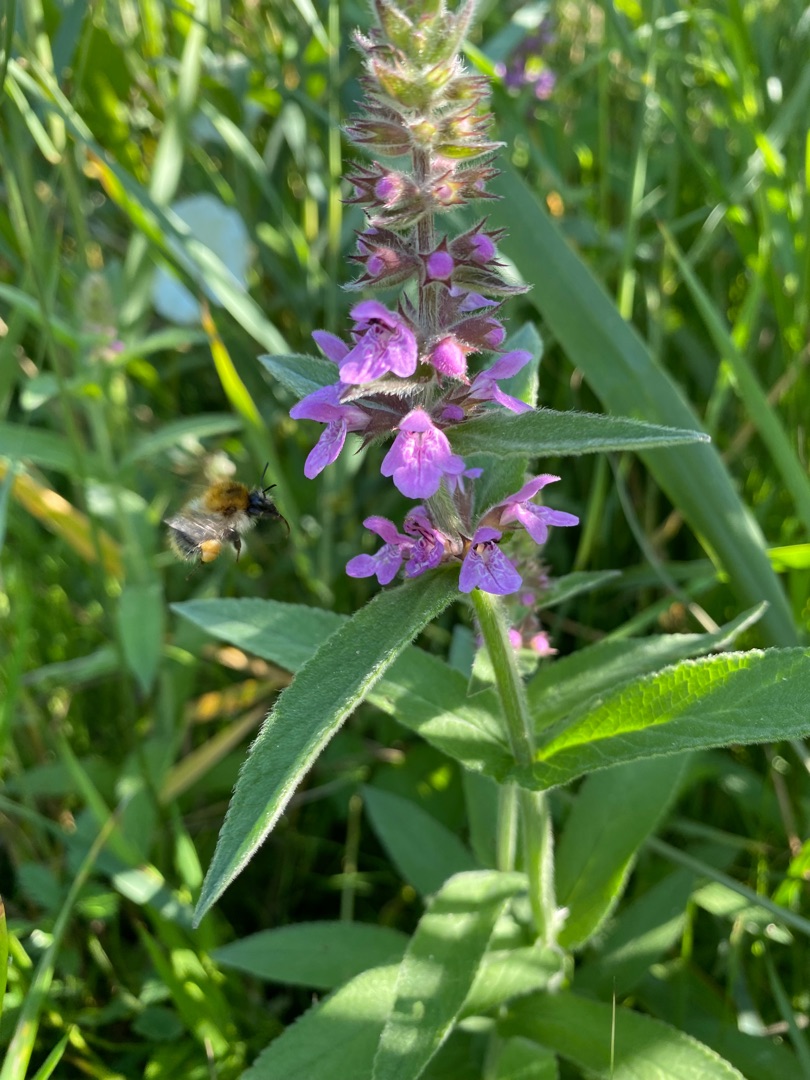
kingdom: Plantae
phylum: Tracheophyta
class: Magnoliopsida
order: Lamiales
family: Lamiaceae
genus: Stachys
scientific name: Stachys palustris
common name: Kær-galtetand
